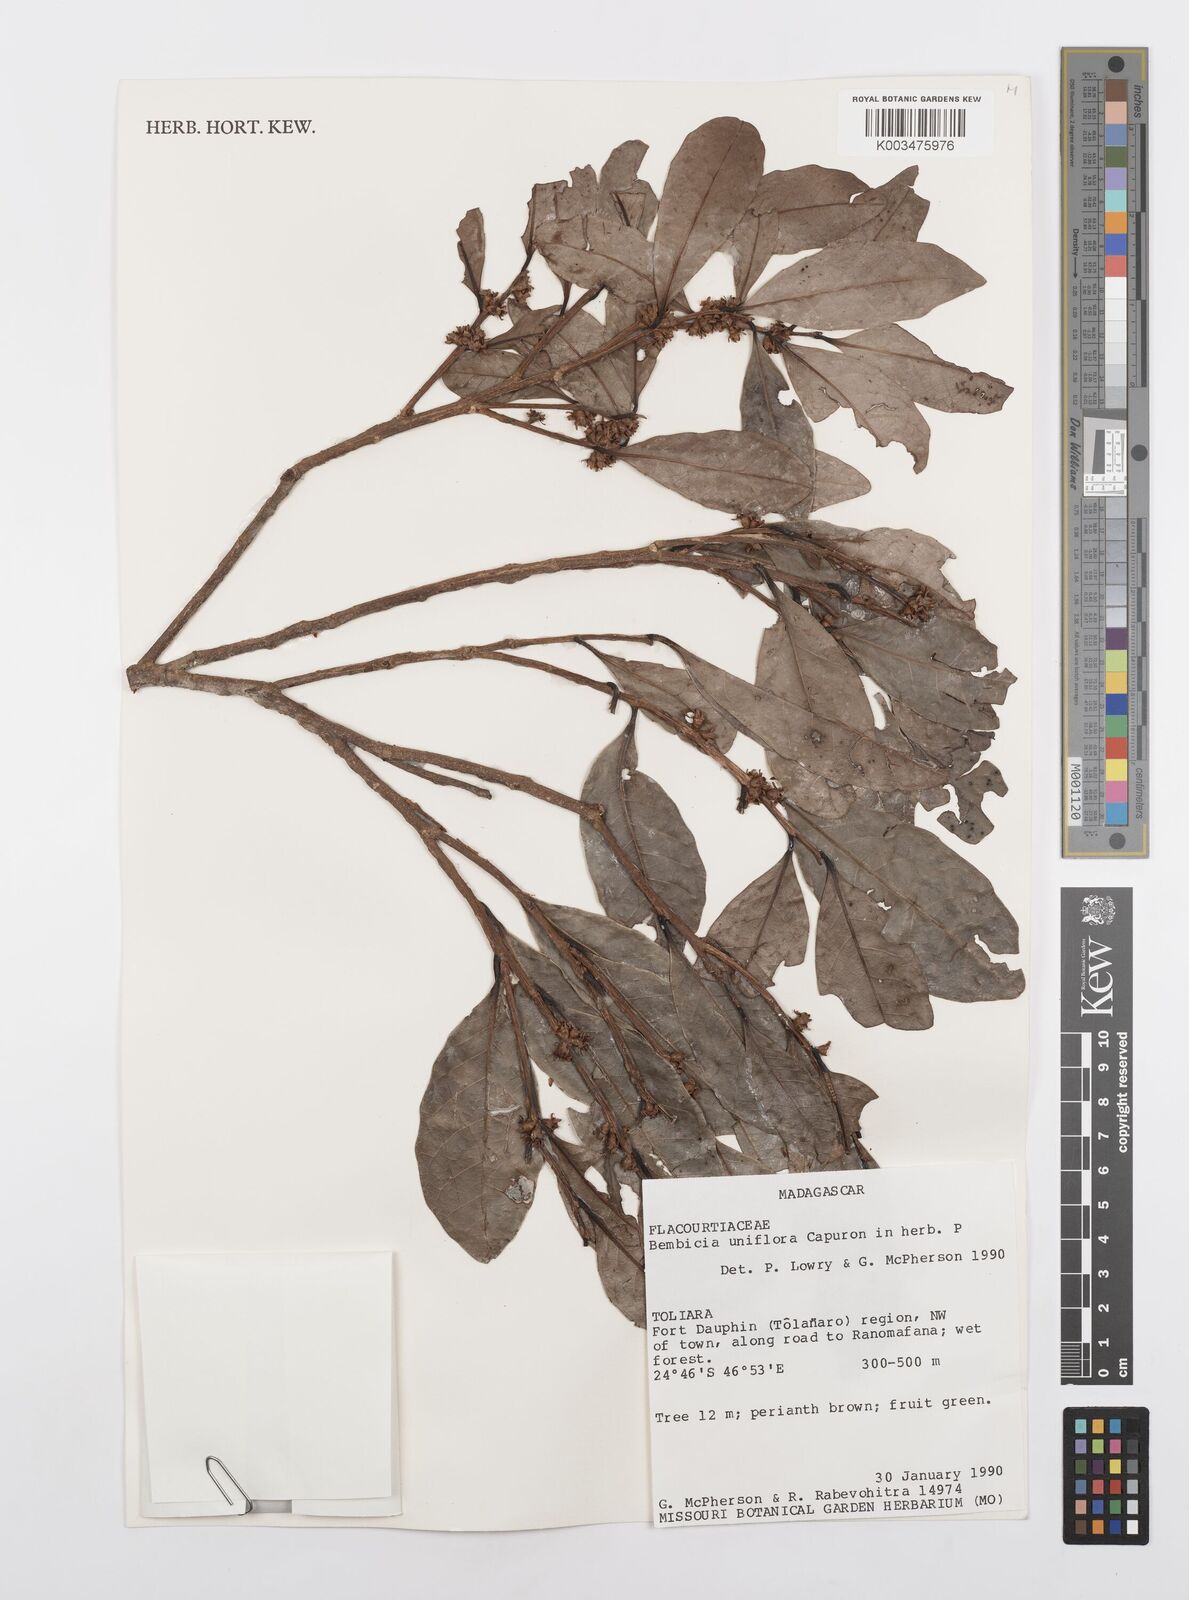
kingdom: Plantae
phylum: Tracheophyta
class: Magnoliopsida
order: Malpighiales
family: Salicaceae
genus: Bembicia
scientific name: Bembicia
